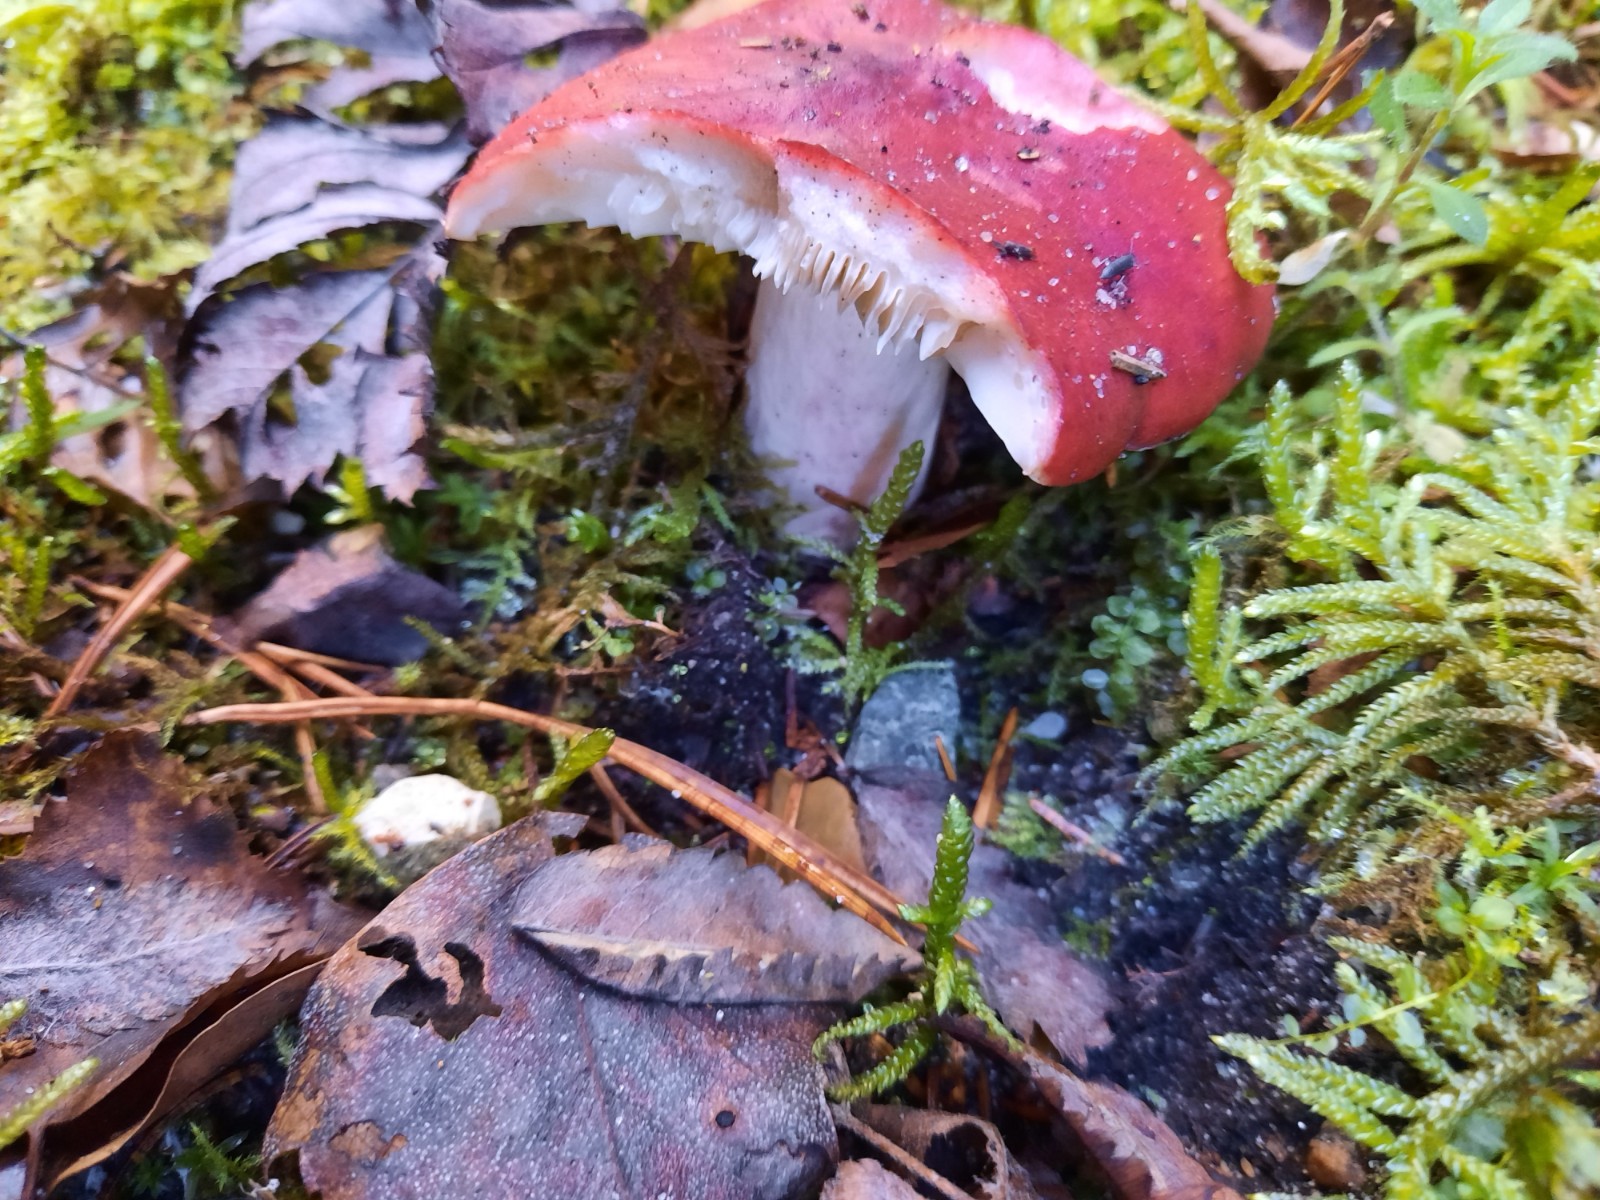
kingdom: Fungi
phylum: Basidiomycota
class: Agaricomycetes
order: Russulales
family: Russulaceae
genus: Russula
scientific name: Russula sanguinea
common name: blodrød skørhat
